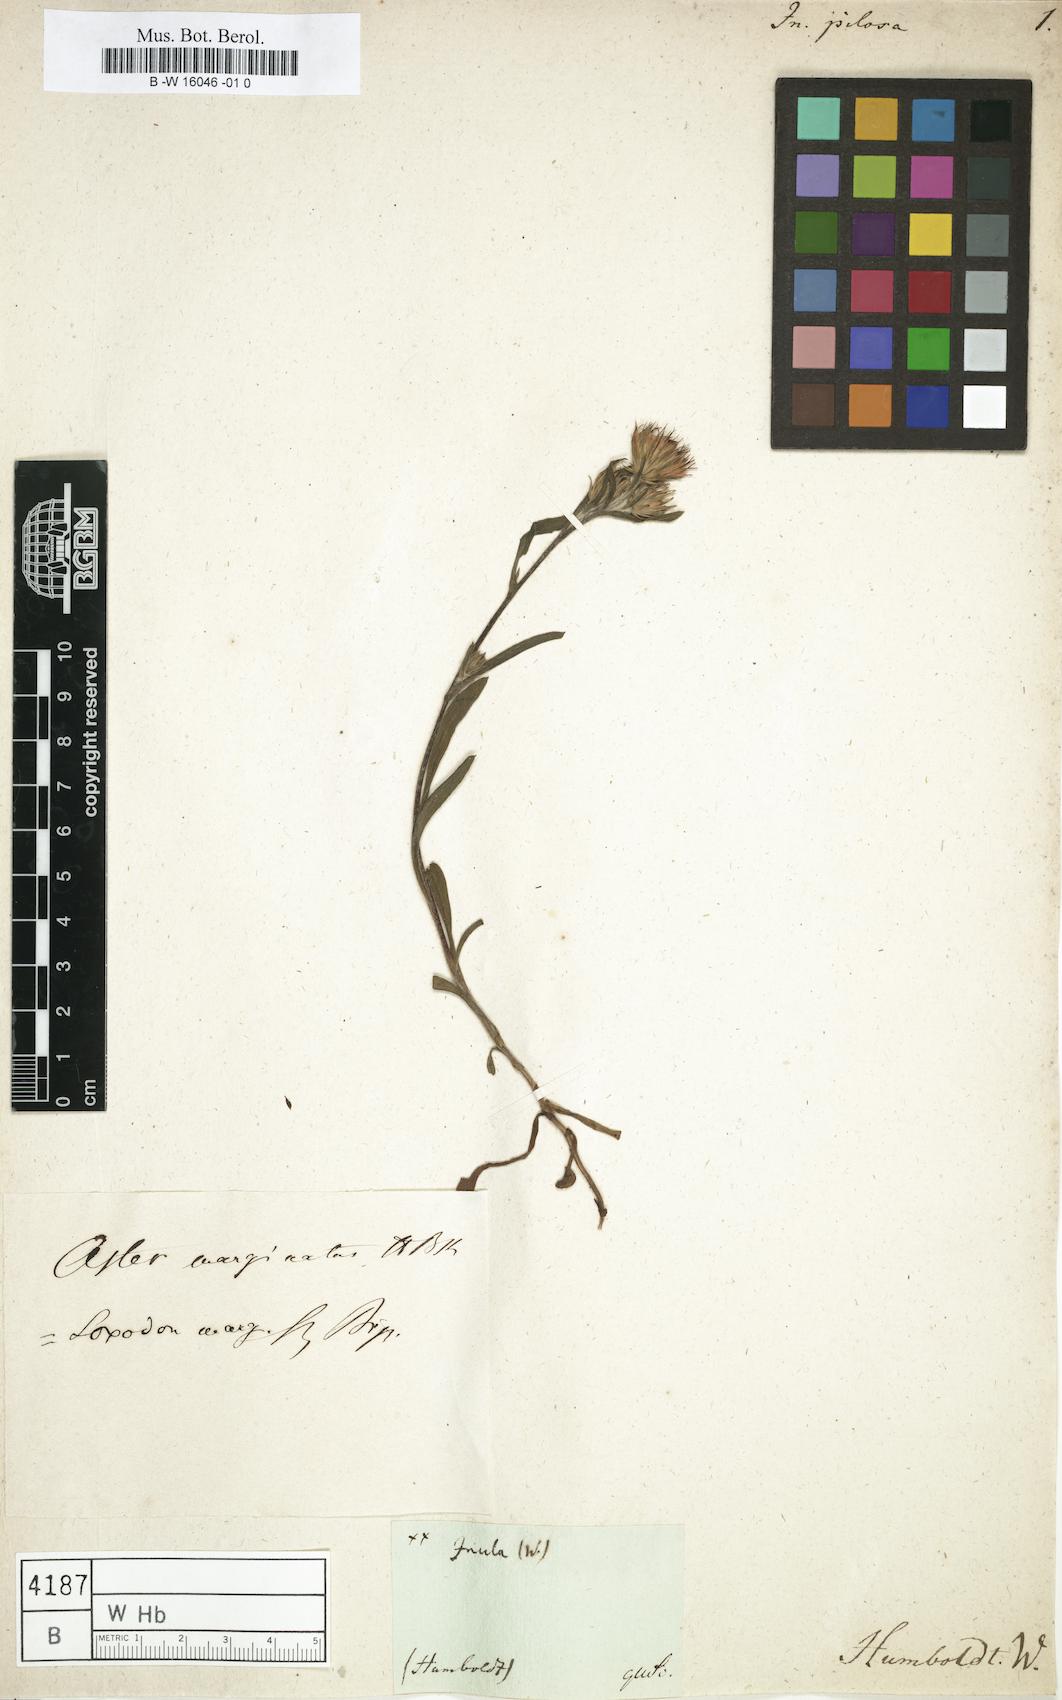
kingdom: Plantae
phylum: Tracheophyta
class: Magnoliopsida
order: Asterales
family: Asteraceae
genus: Inula
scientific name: Inula
